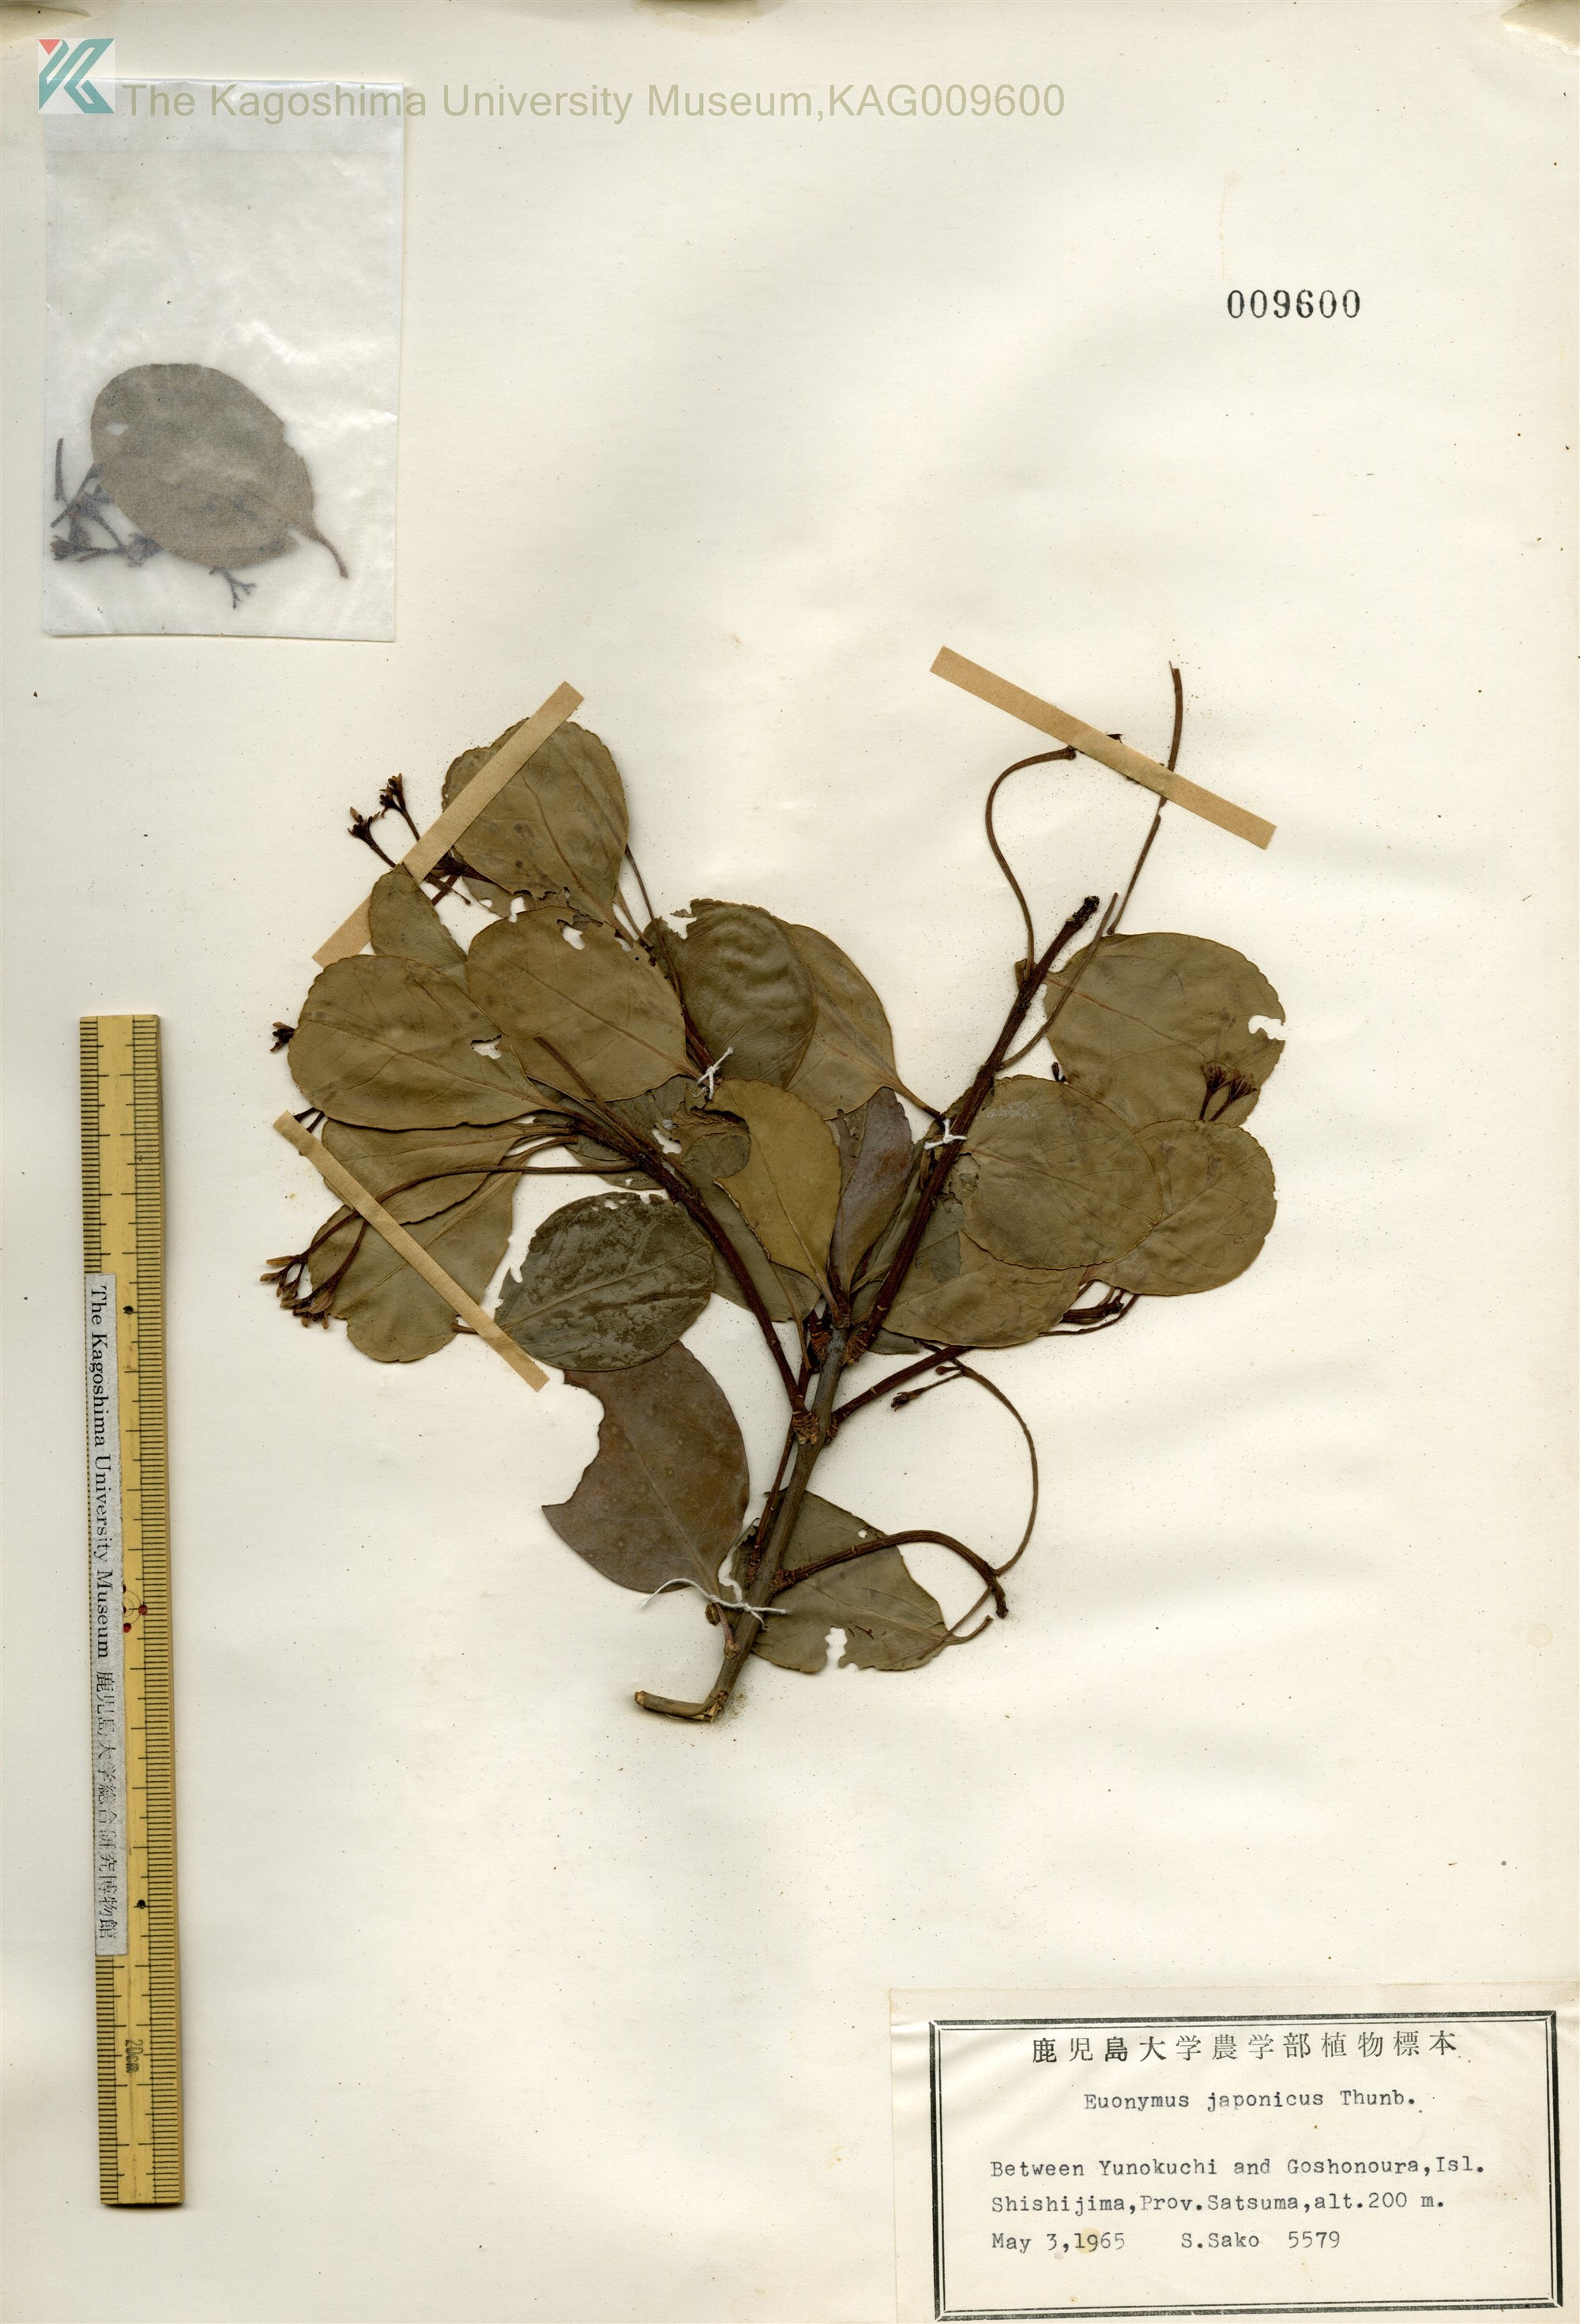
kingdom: Plantae
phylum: Tracheophyta
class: Magnoliopsida
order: Celastrales
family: Celastraceae
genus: Euonymus
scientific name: Euonymus japonicus
